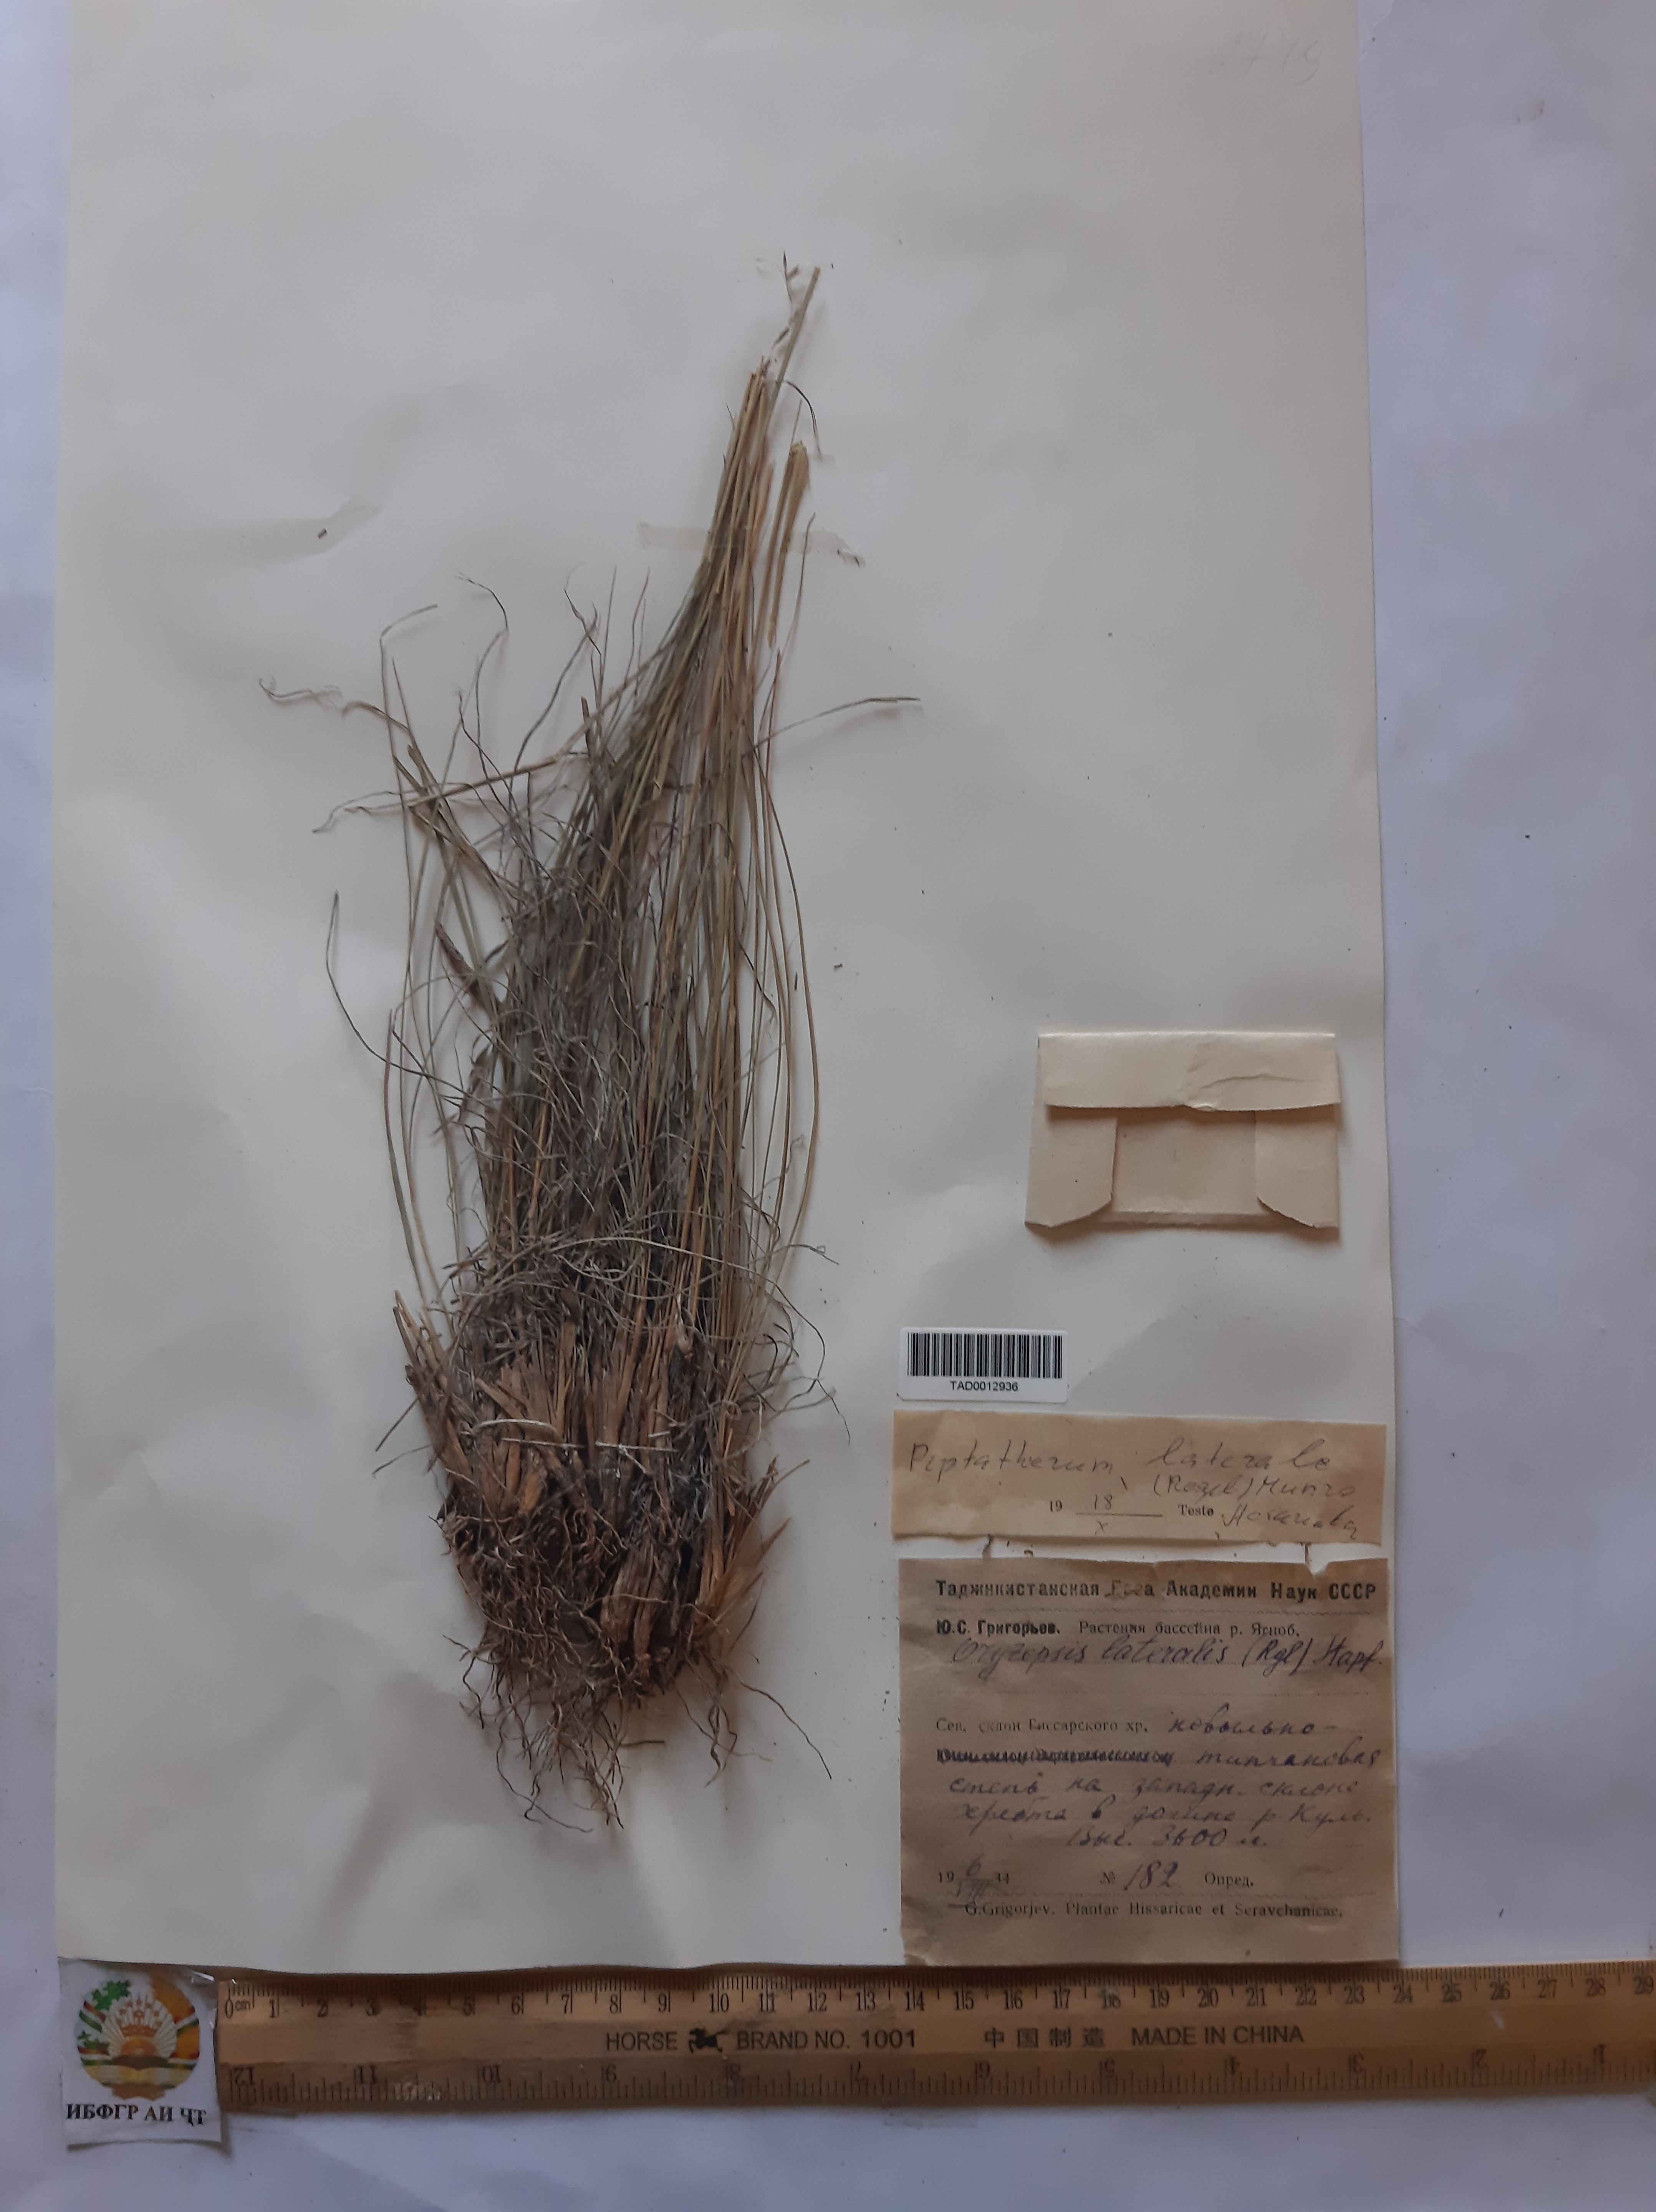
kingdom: Plantae
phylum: Tracheophyta
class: Liliopsida
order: Poales
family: Poaceae
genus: Piptatherum
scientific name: Piptatherum laterale
